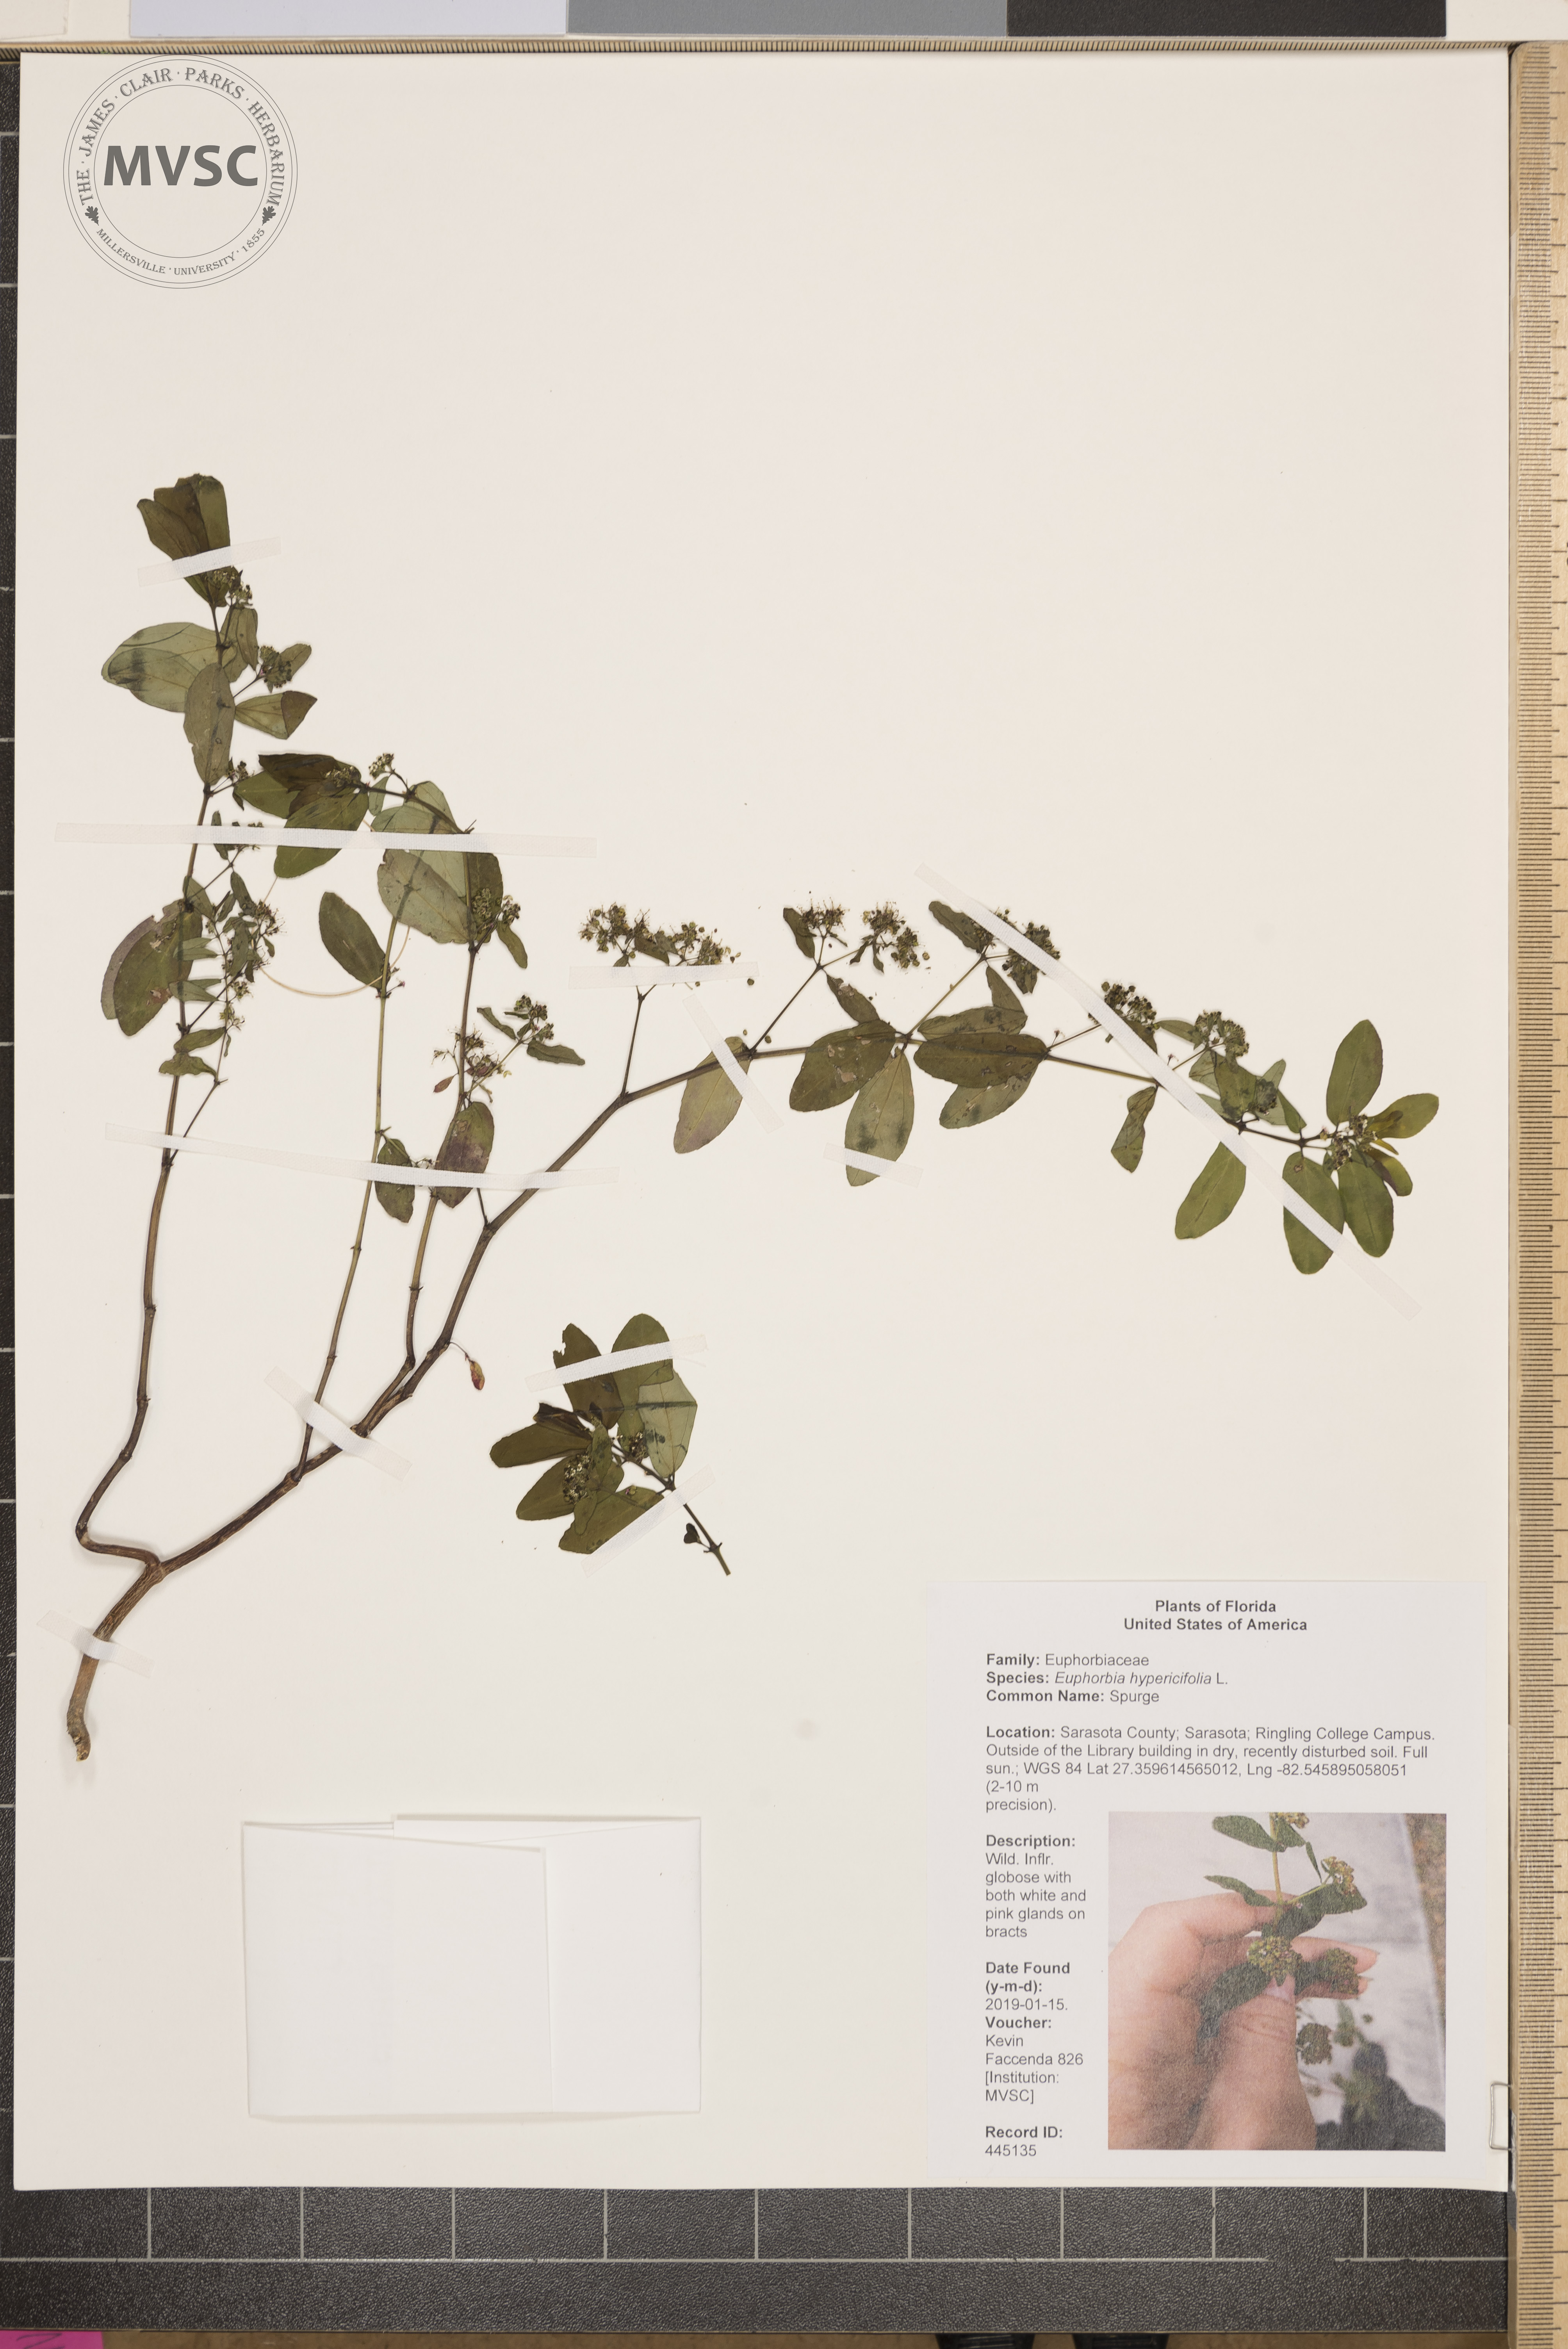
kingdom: Plantae
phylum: Tracheophyta
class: Magnoliopsida
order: Malpighiales
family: Euphorbiaceae
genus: Euphorbia
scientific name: Euphorbia hypericifolia
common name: Spurge
